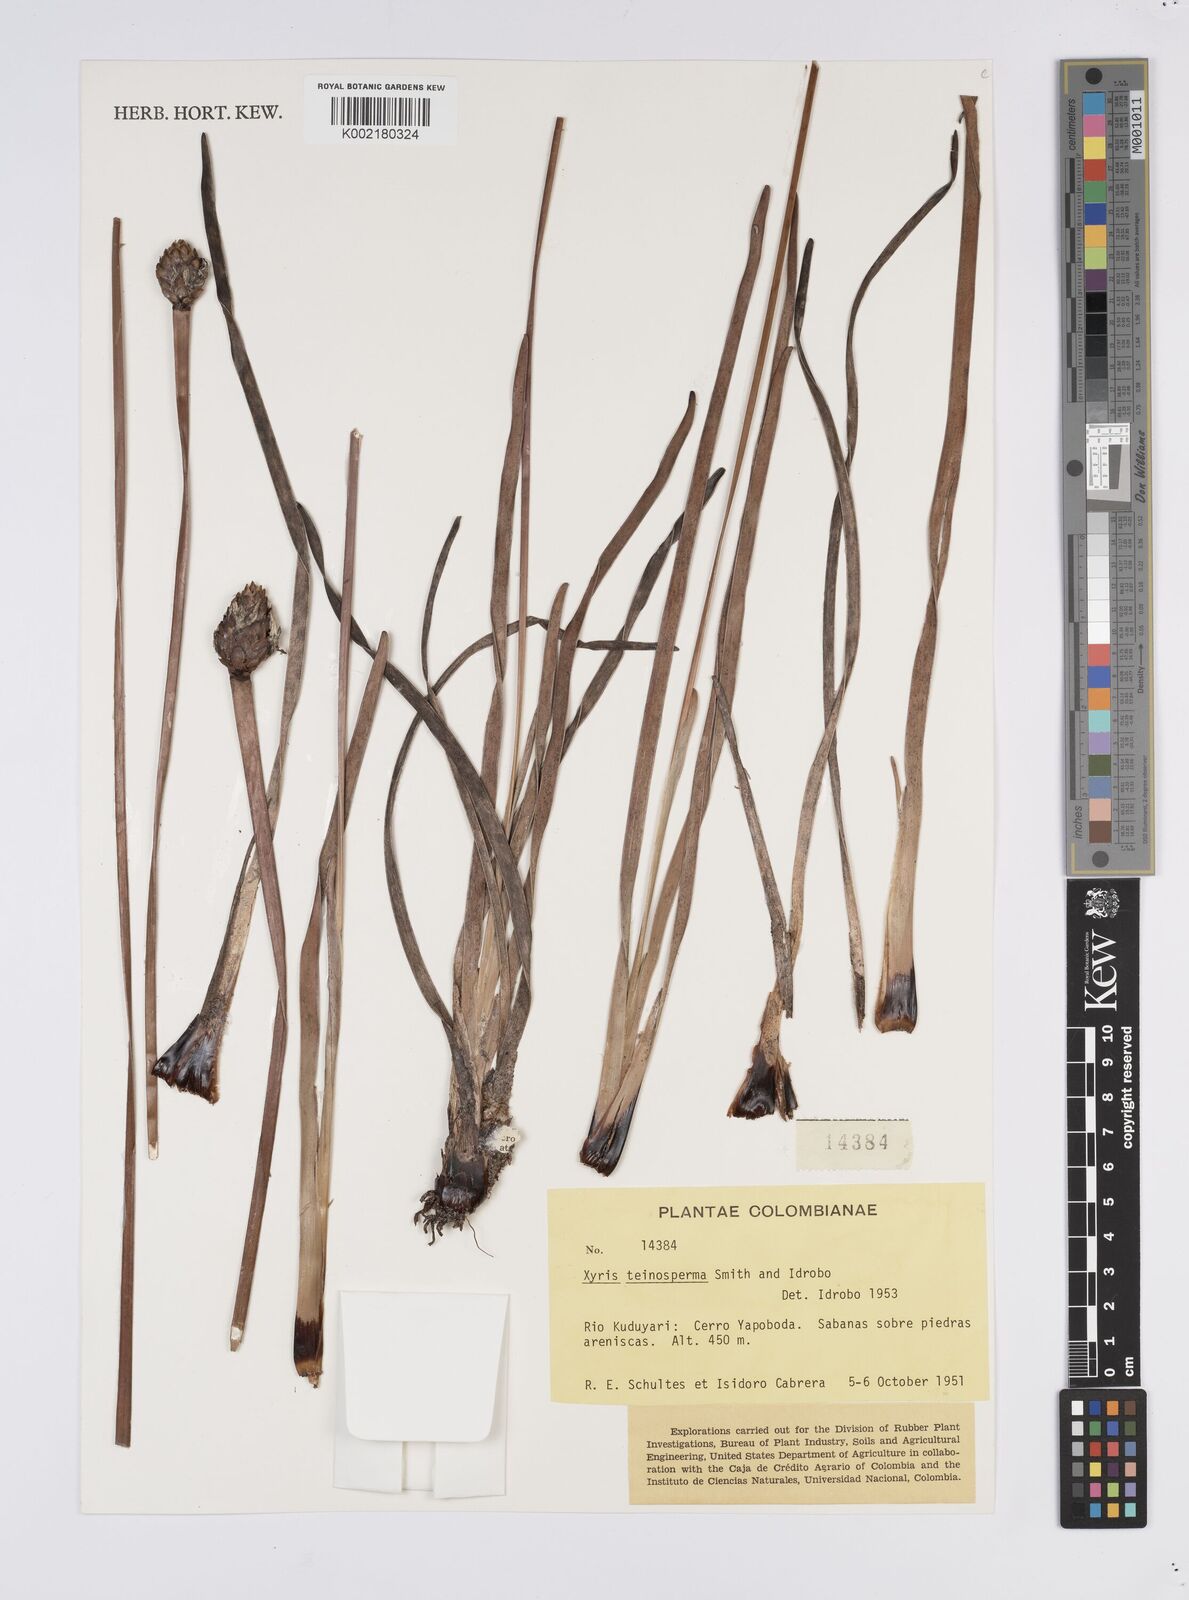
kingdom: Plantae
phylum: Tracheophyta
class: Liliopsida
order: Poales
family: Xyridaceae
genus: Xyris
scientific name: Xyris teinosperma
